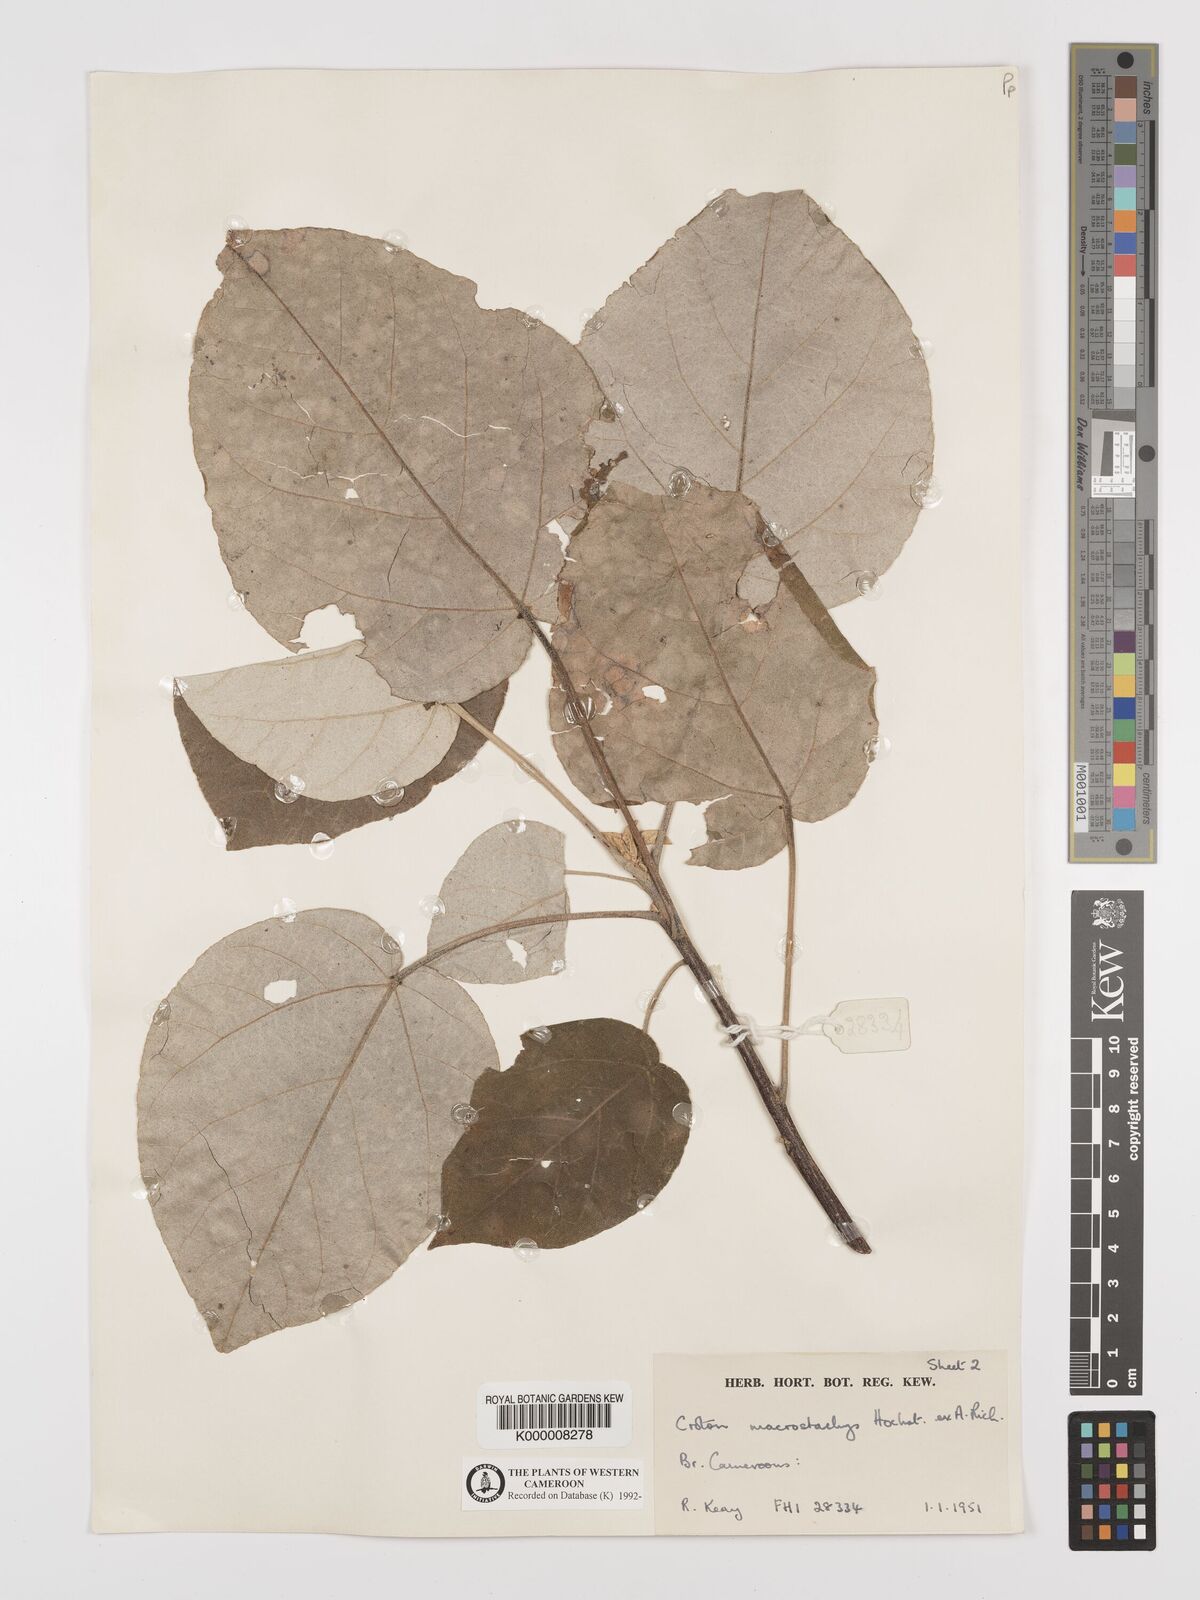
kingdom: Plantae
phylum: Tracheophyta
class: Magnoliopsida
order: Malpighiales
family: Euphorbiaceae
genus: Croton
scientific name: Croton macrostachyus
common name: Mutundu
